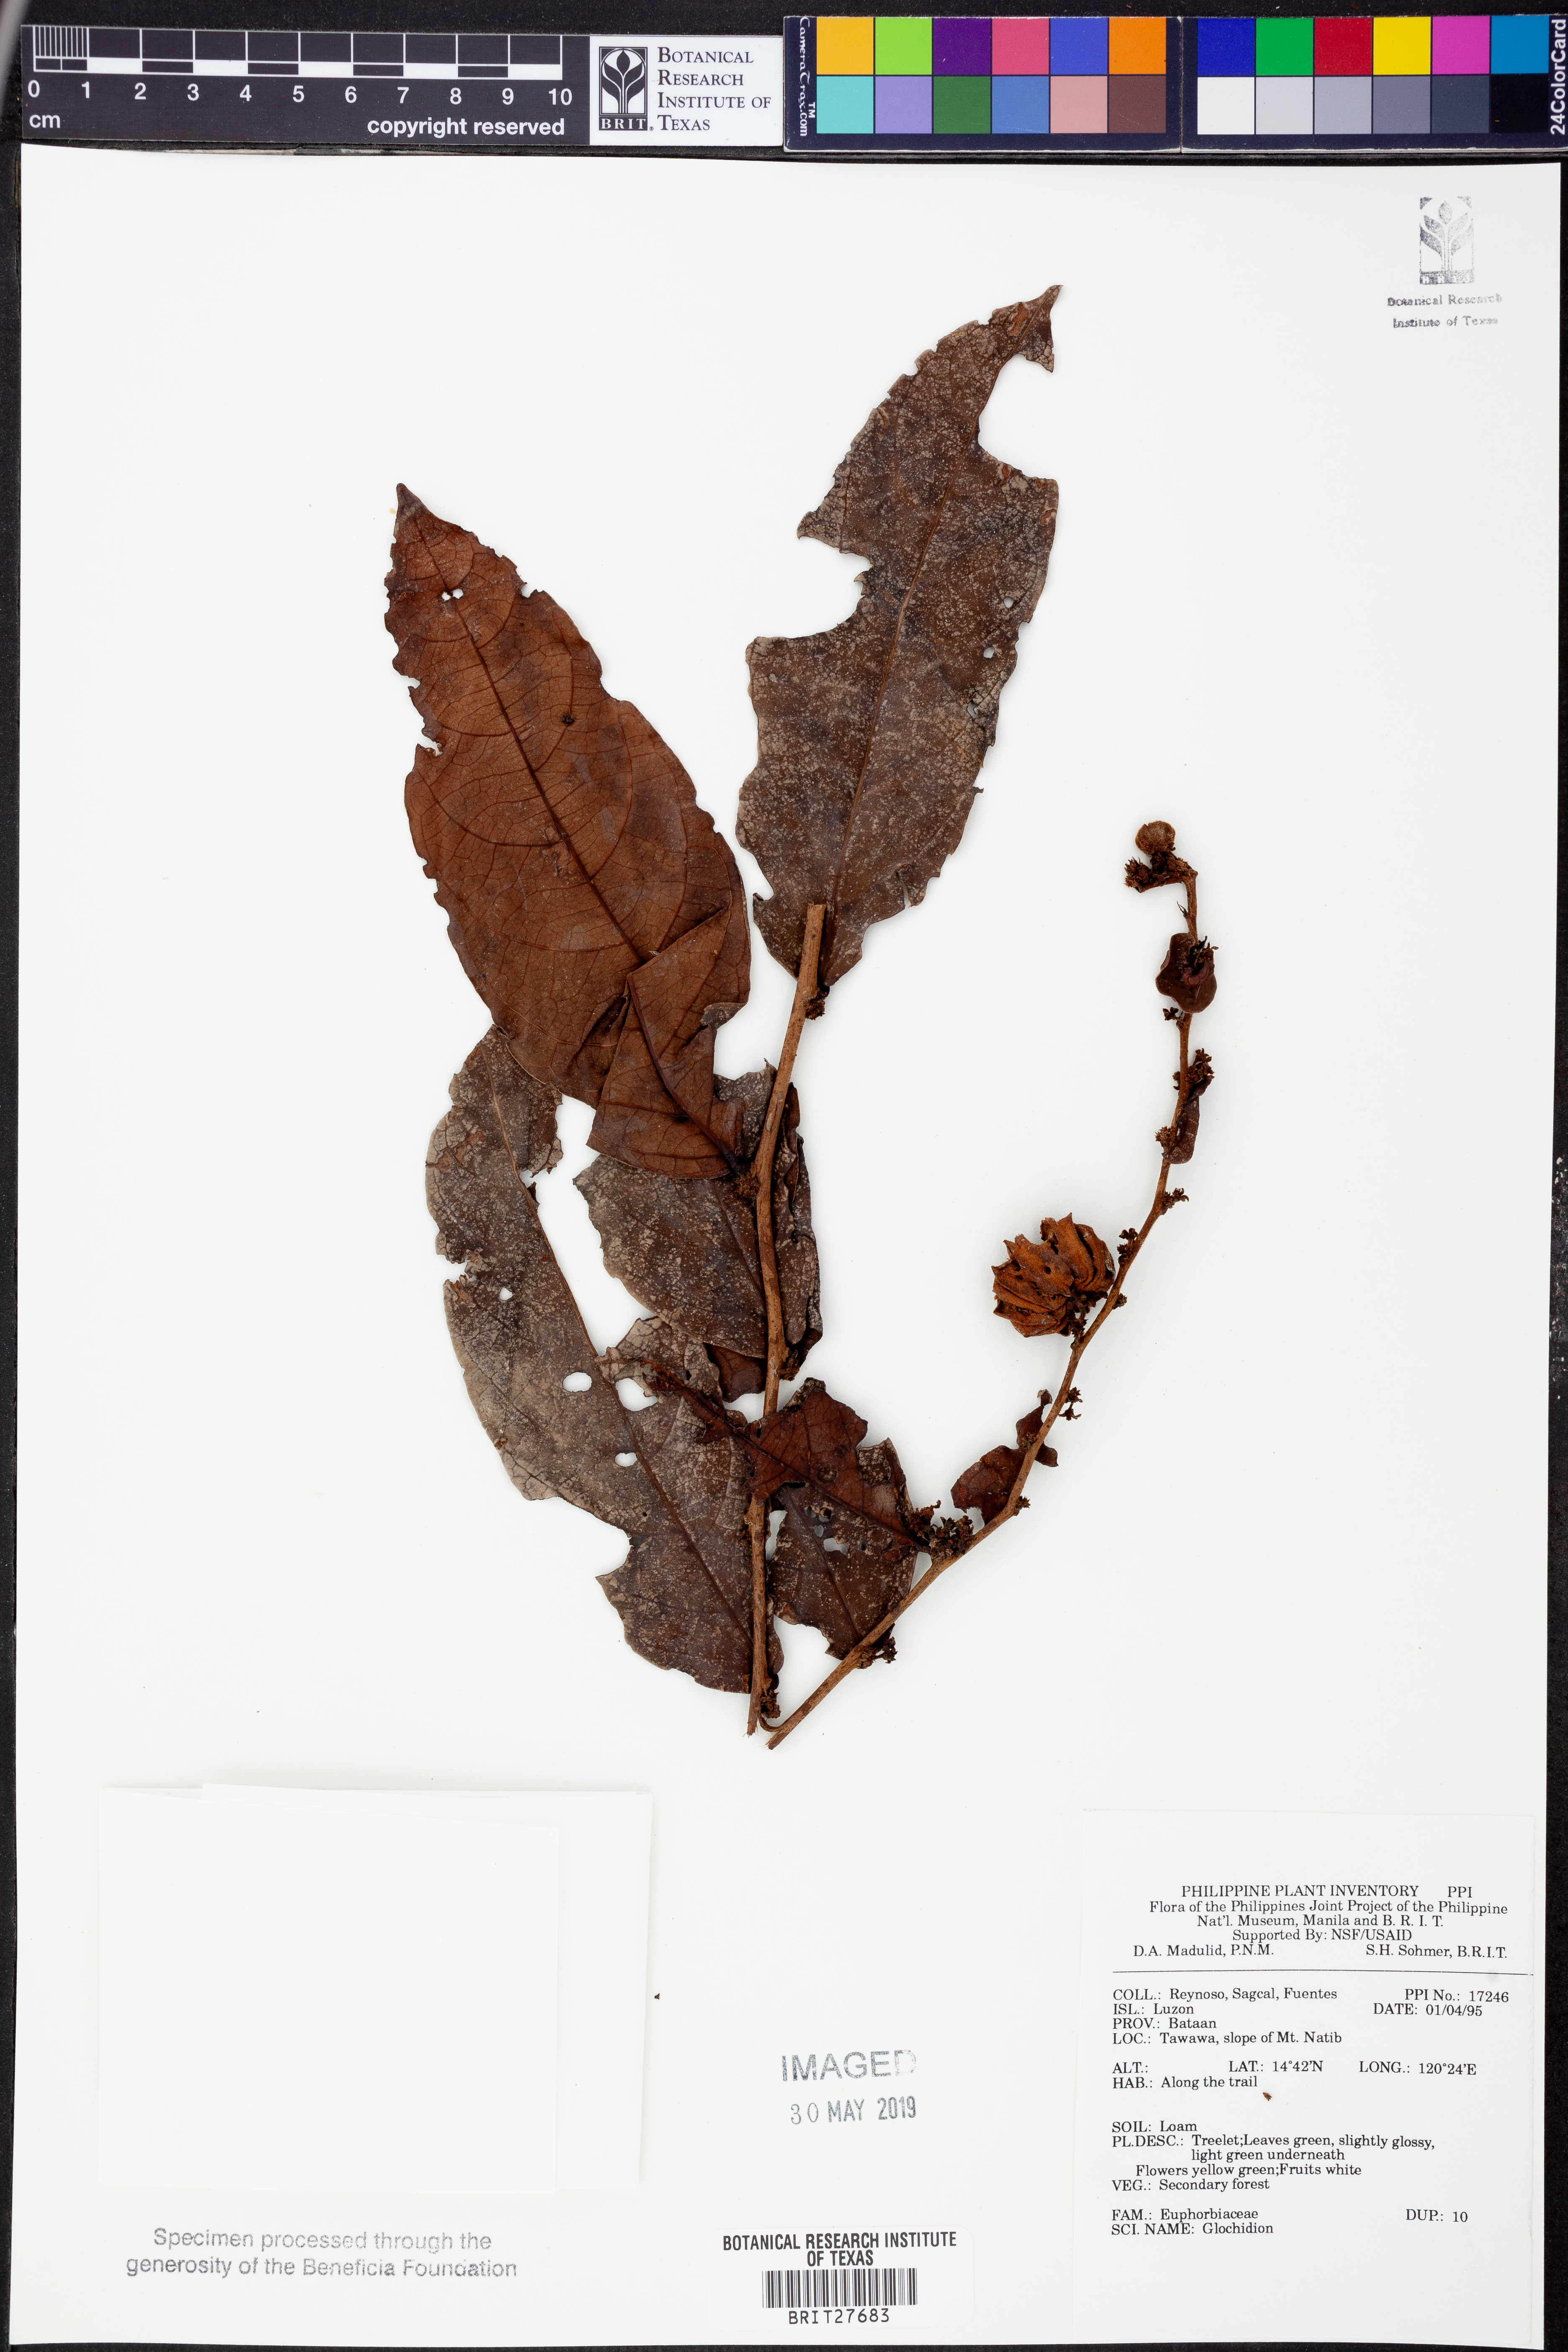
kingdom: Plantae
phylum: Tracheophyta
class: Magnoliopsida
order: Malpighiales
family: Phyllanthaceae
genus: Glochidion
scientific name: Glochidion
